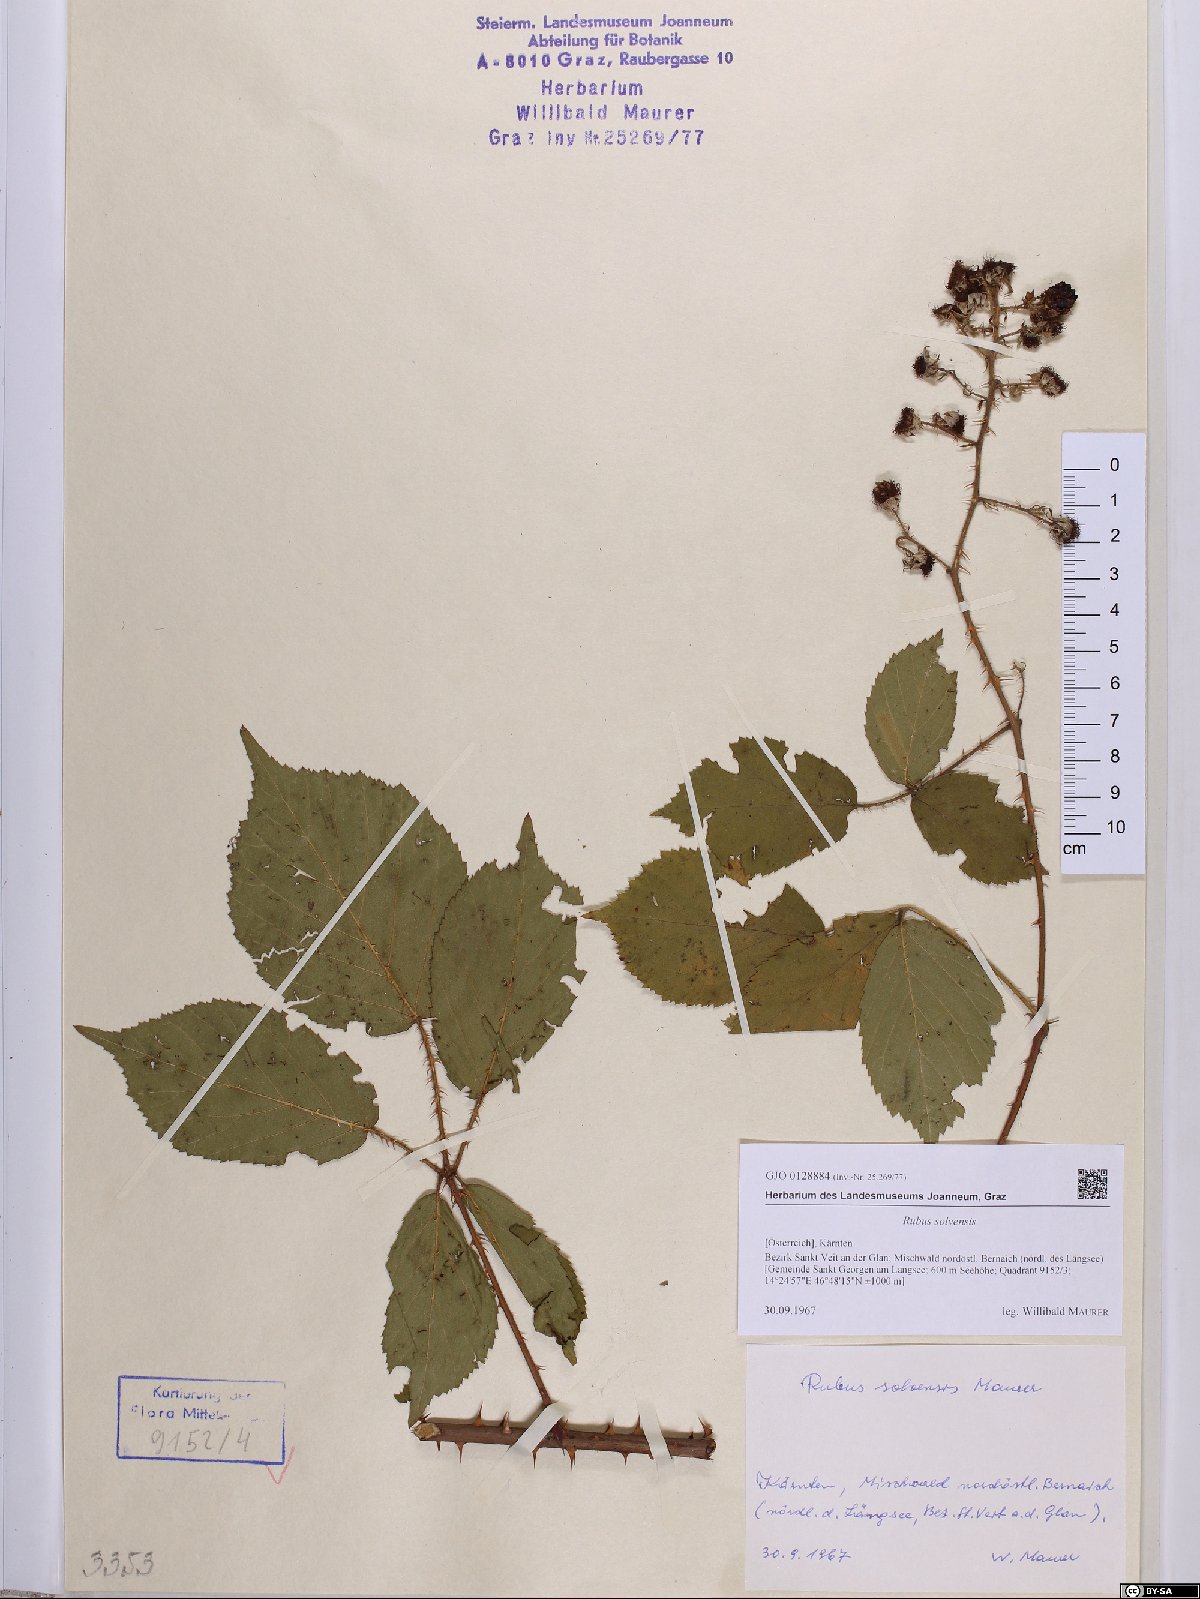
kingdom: Plantae
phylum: Tracheophyta
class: Magnoliopsida
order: Rosales
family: Rosaceae
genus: Rubus
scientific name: Rubus solvensis
